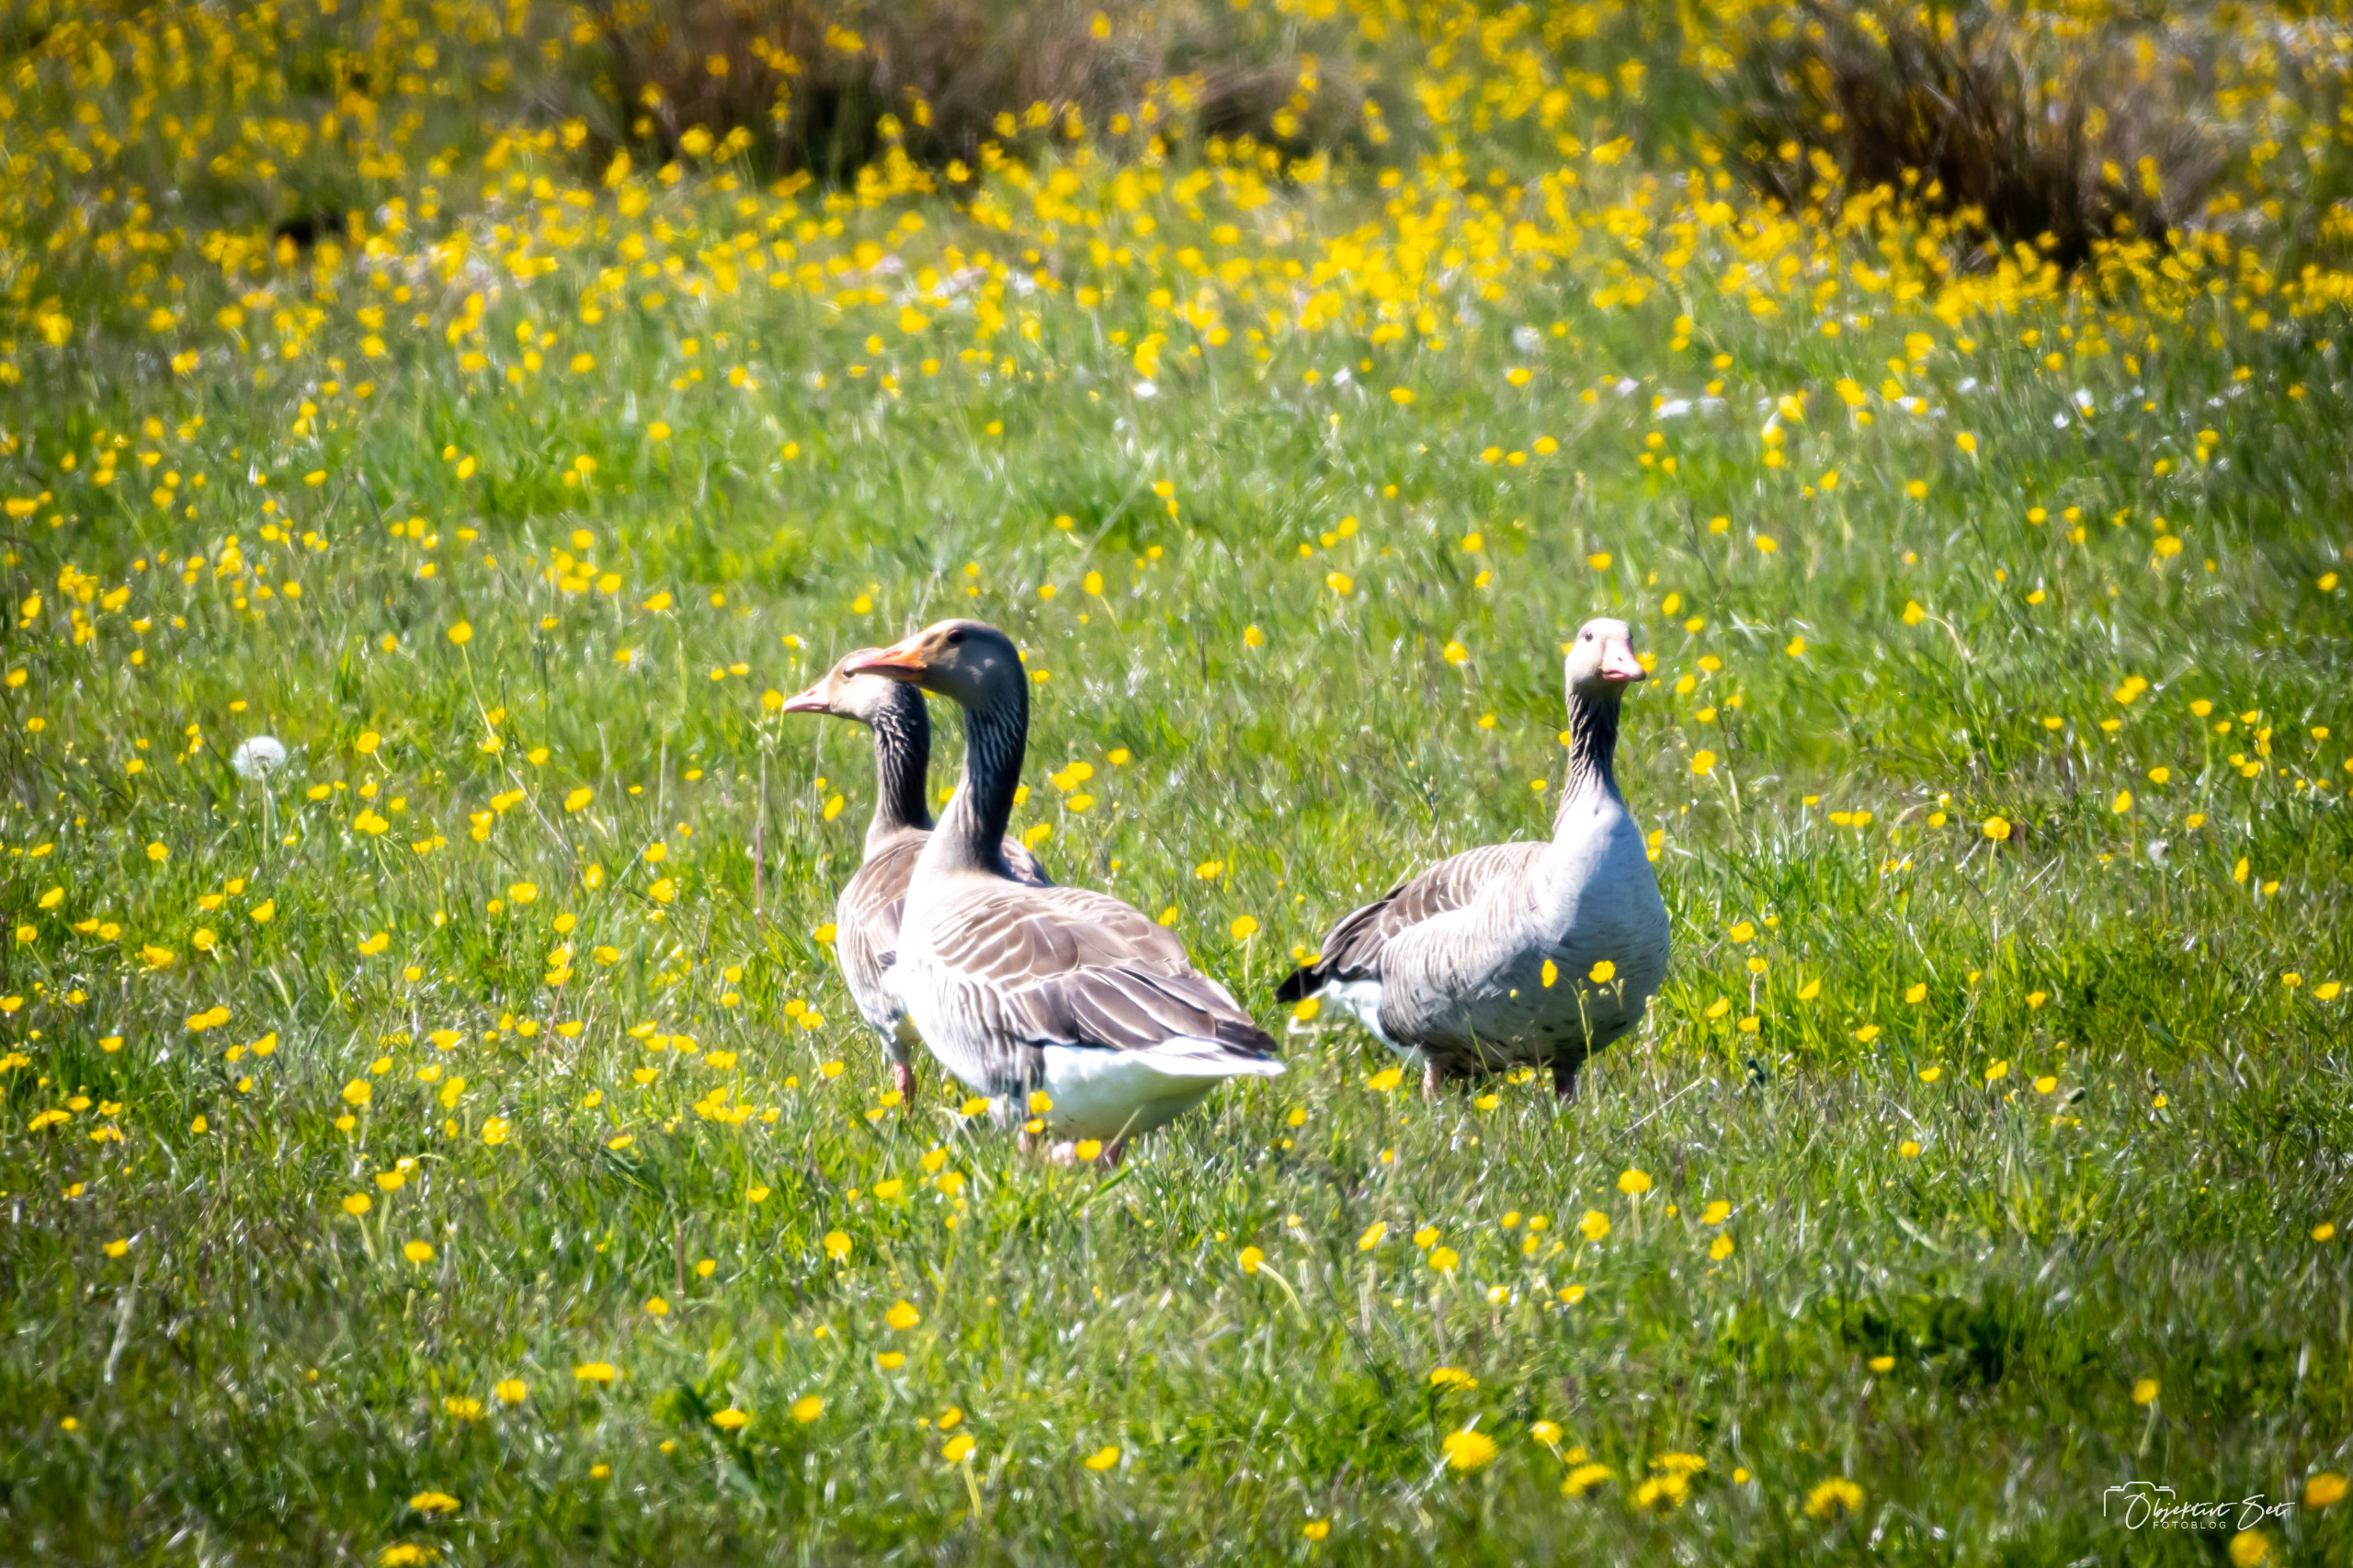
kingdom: Animalia
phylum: Chordata
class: Aves
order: Anseriformes
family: Anatidae
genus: Anser
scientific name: Anser anser
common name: Grågås
